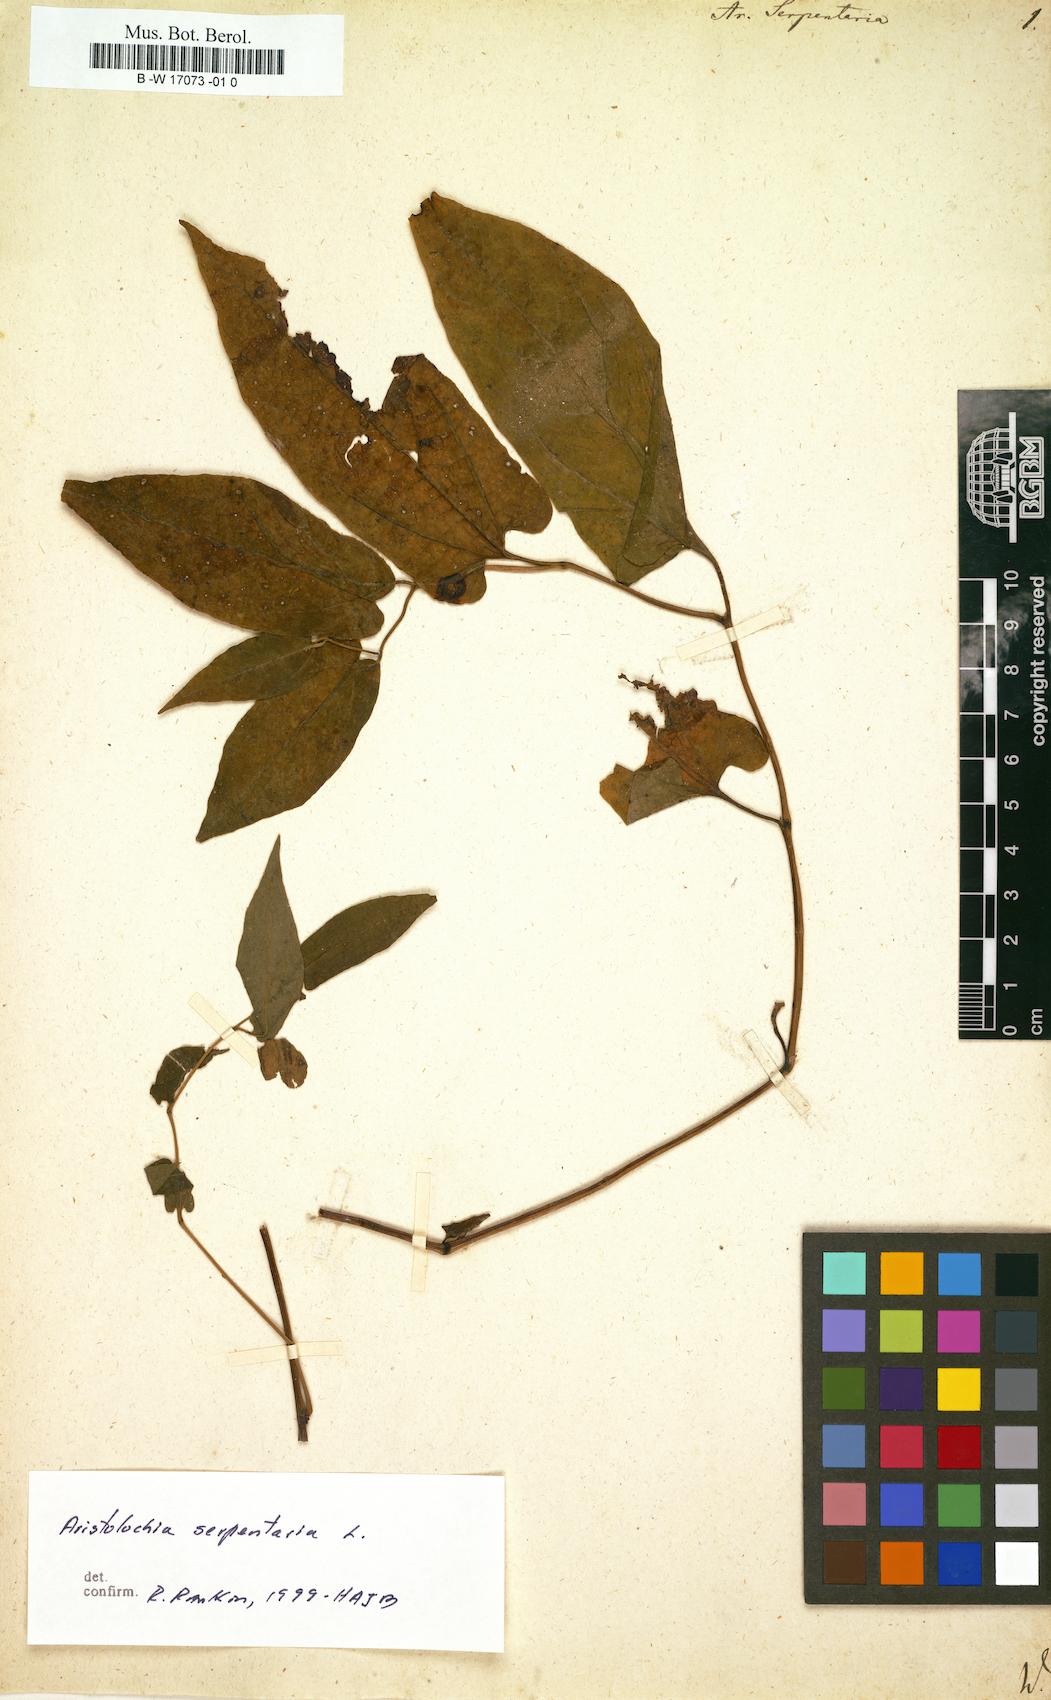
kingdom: Plantae
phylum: Tracheophyta
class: Magnoliopsida
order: Piperales
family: Aristolochiaceae
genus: Endodeca
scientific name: Endodeca serpentaria
